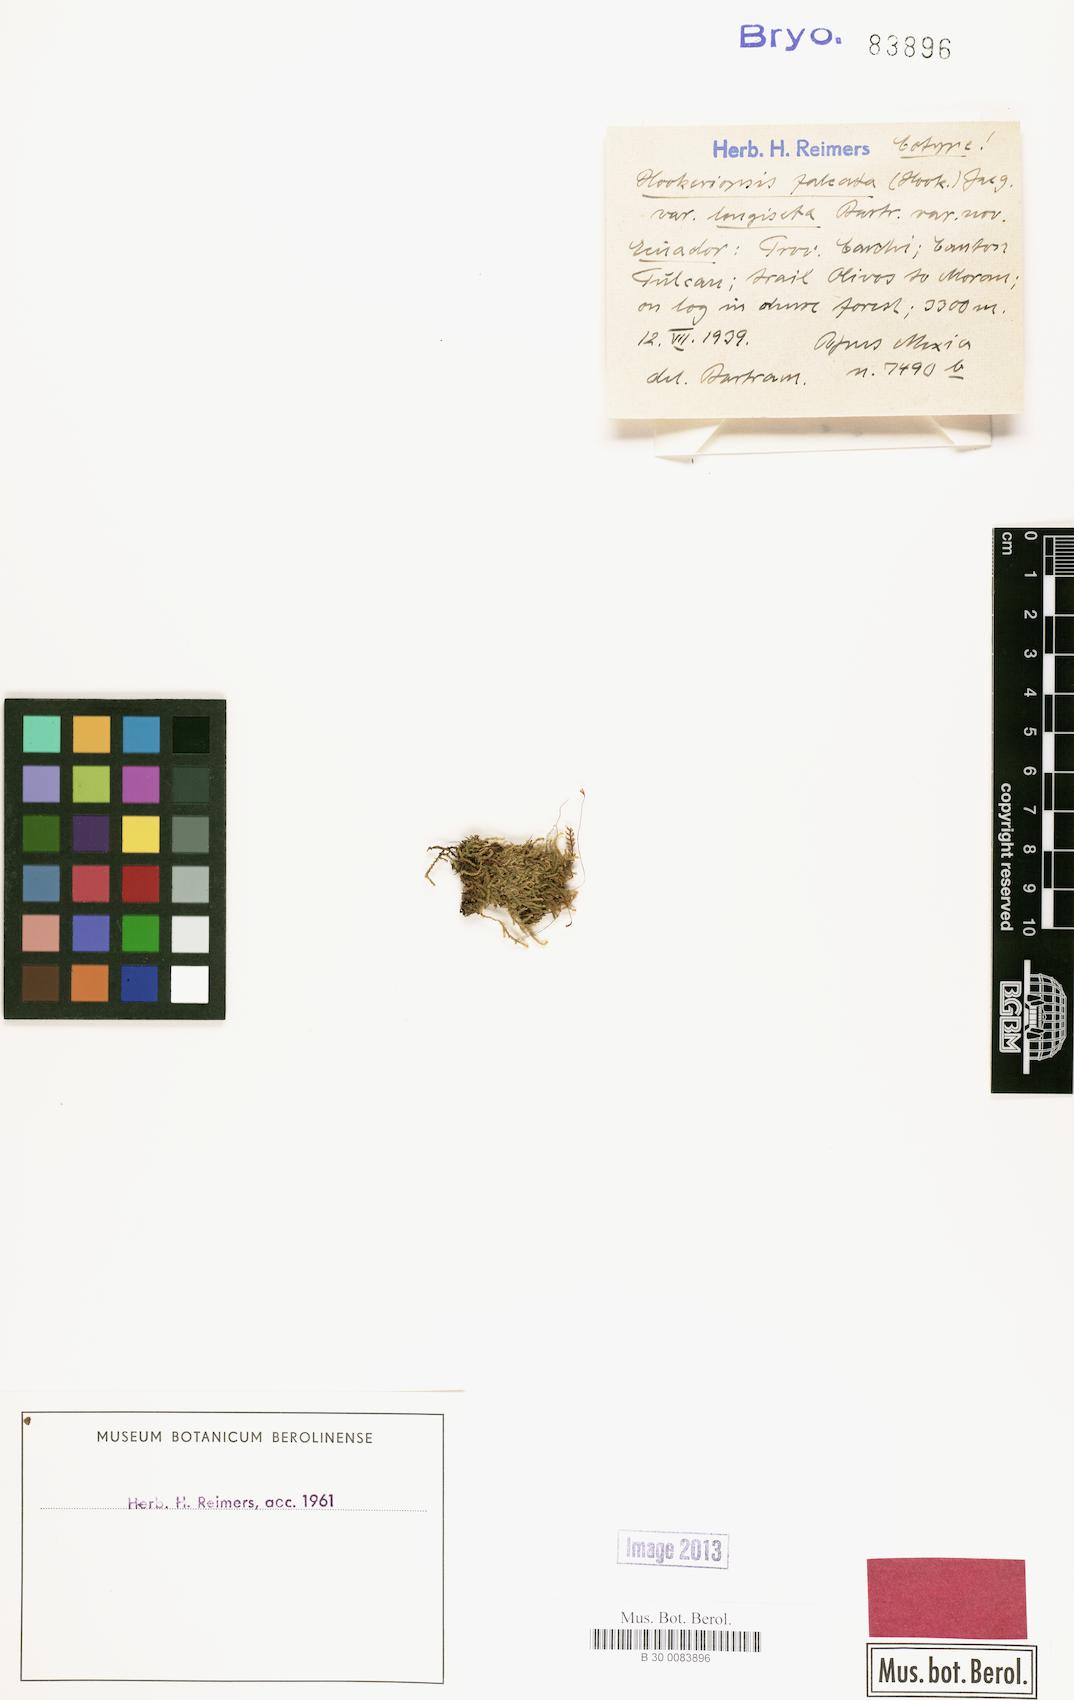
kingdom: Plantae
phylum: Bryophyta
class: Bryopsida
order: Hookeriales
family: Pilotrichaceae
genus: Trachyxiphium
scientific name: Trachyxiphium guadalupense
